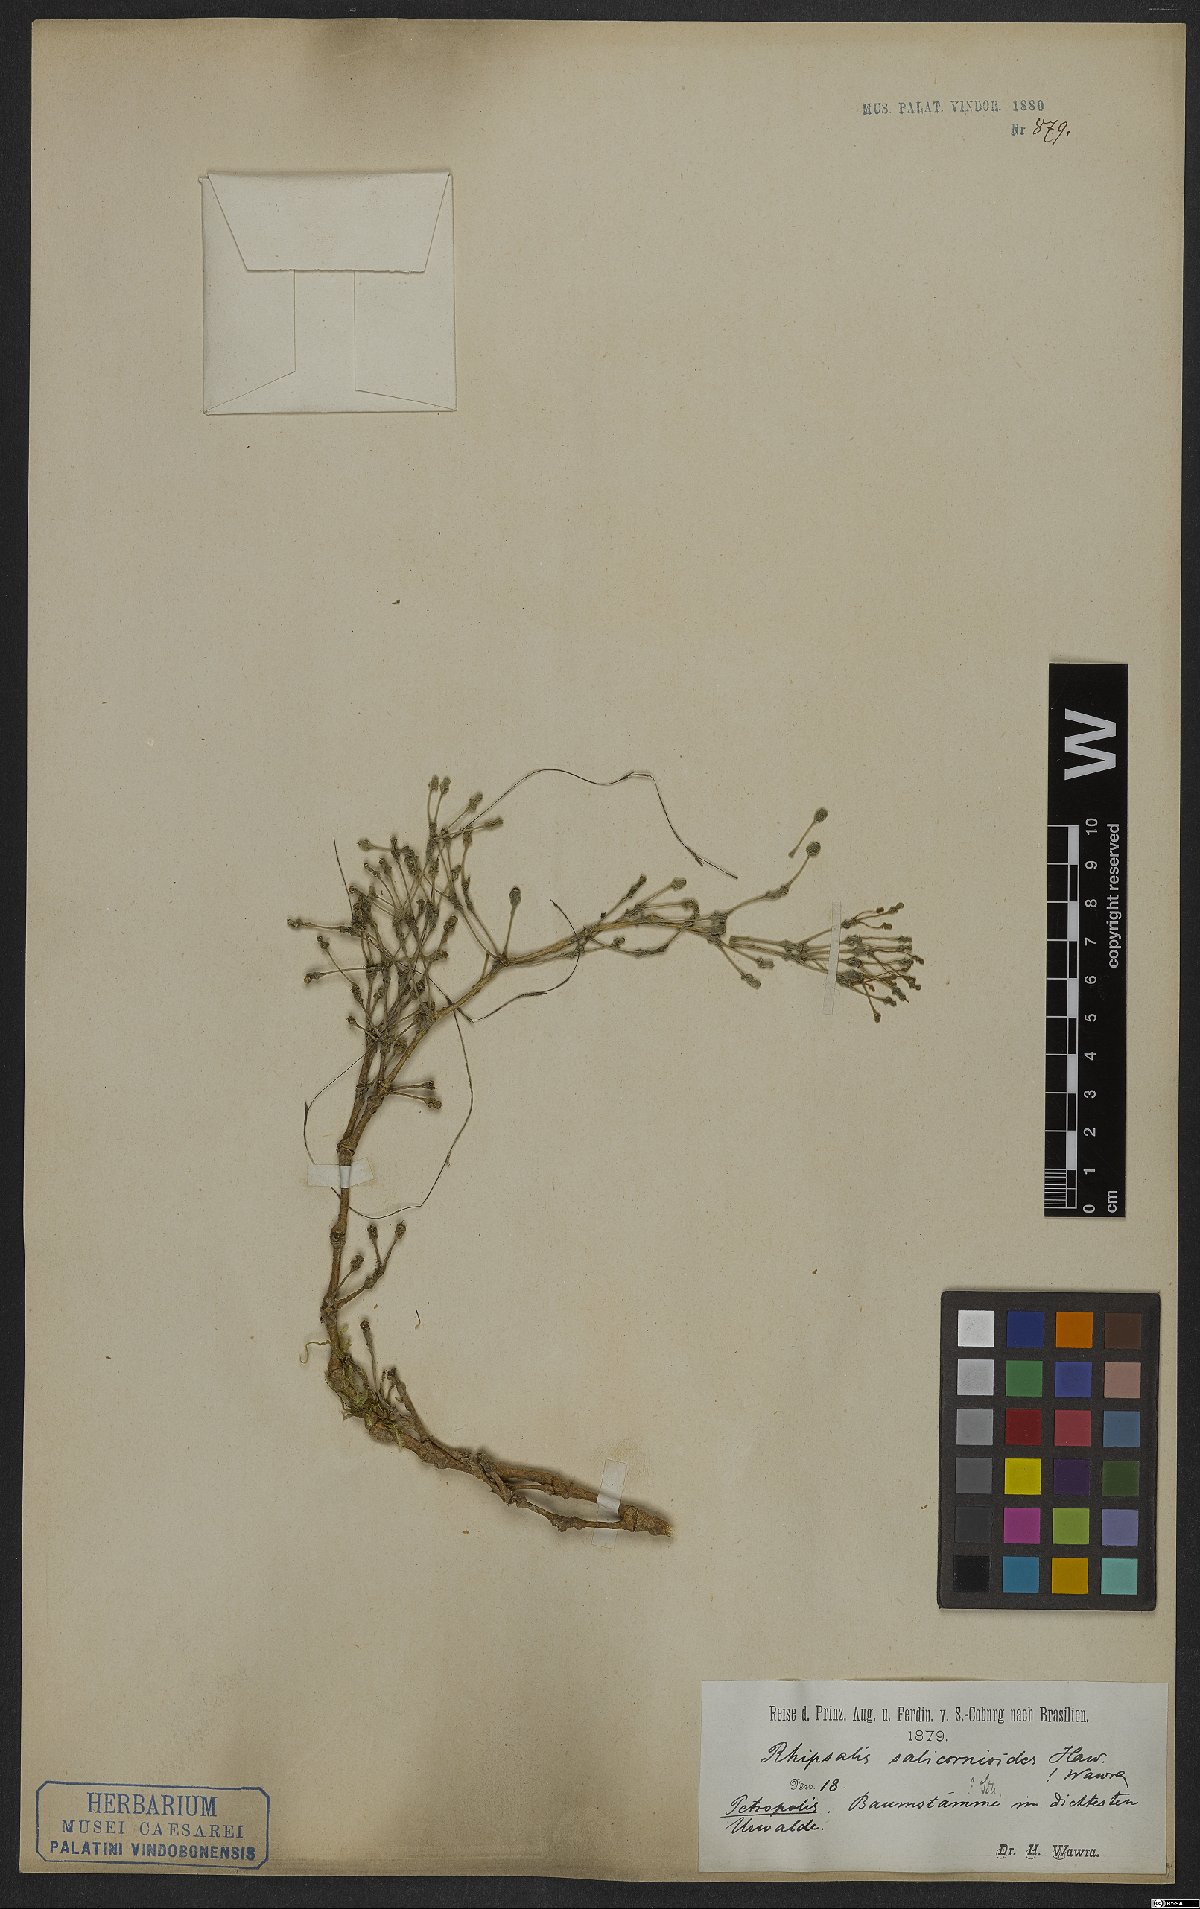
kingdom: Plantae
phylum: Tracheophyta
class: Magnoliopsida
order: Caryophyllales
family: Cactaceae
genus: Hatiora
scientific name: Hatiora salicornioides
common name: Dancing-bones
